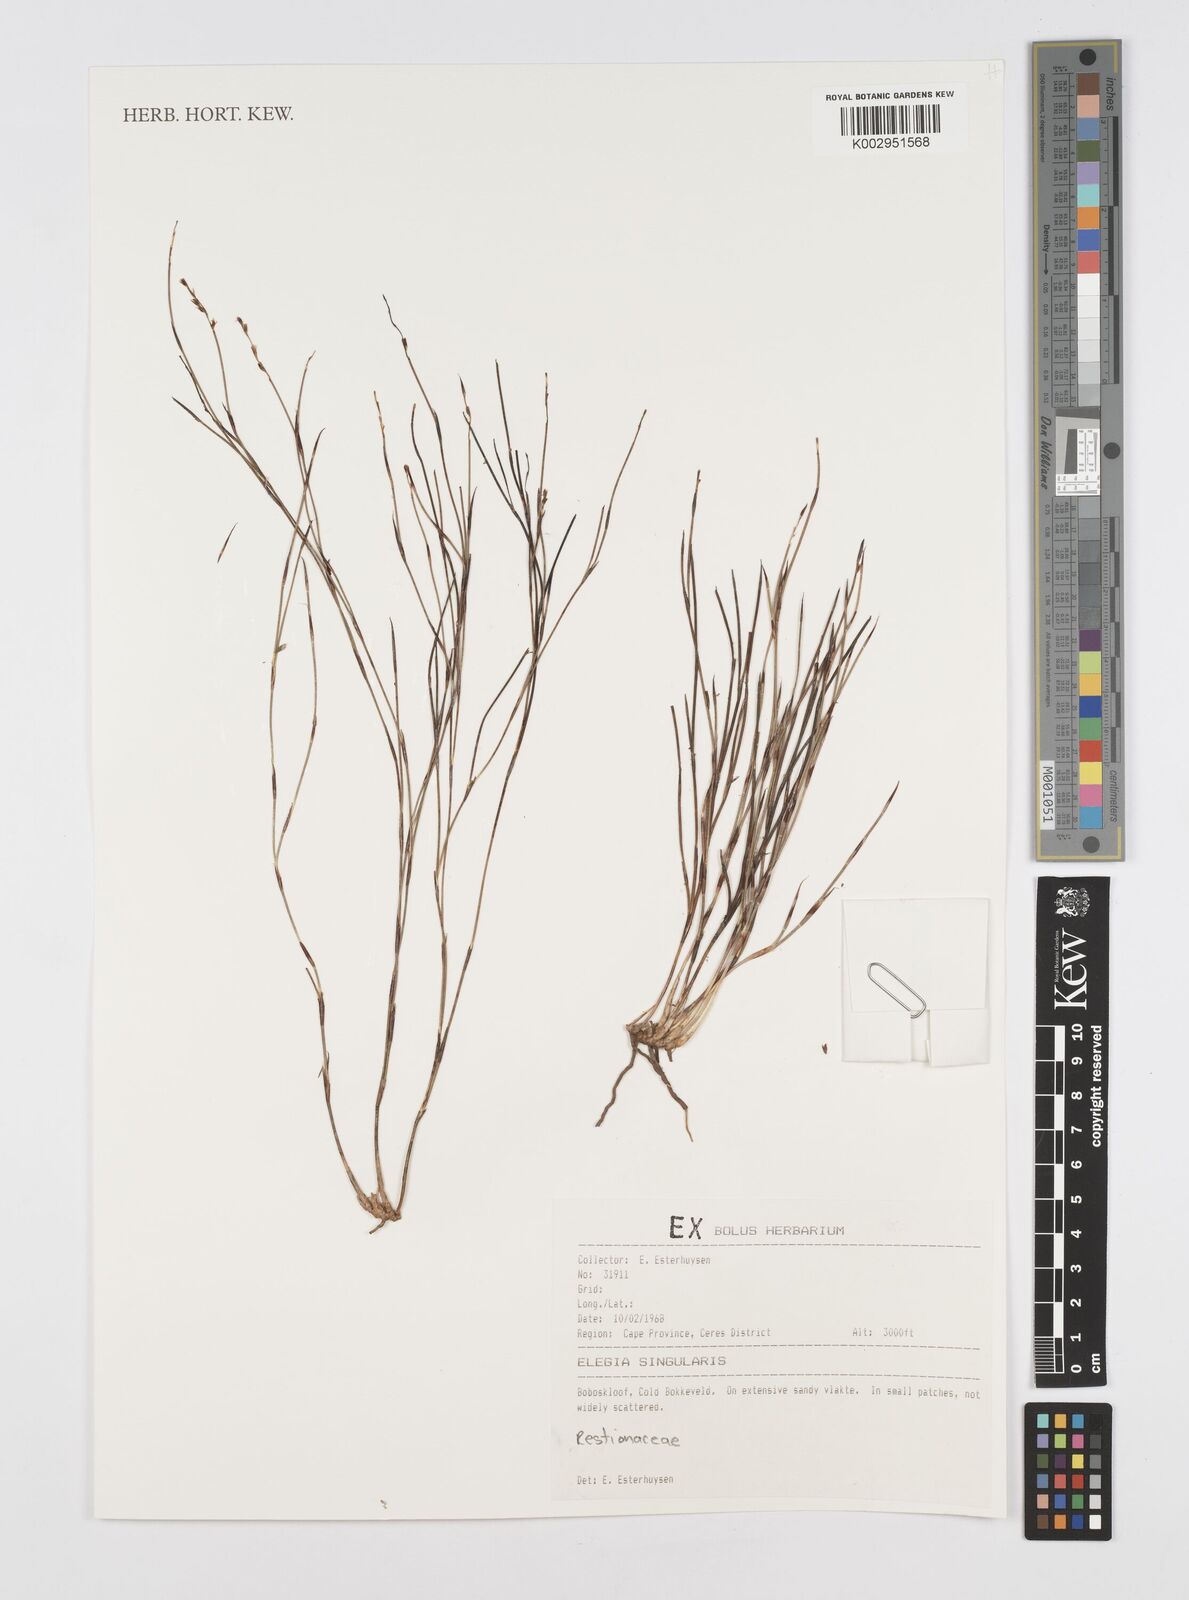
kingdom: Plantae
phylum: Tracheophyta
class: Liliopsida
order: Poales
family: Restionaceae
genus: Restio
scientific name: Restio singularis
